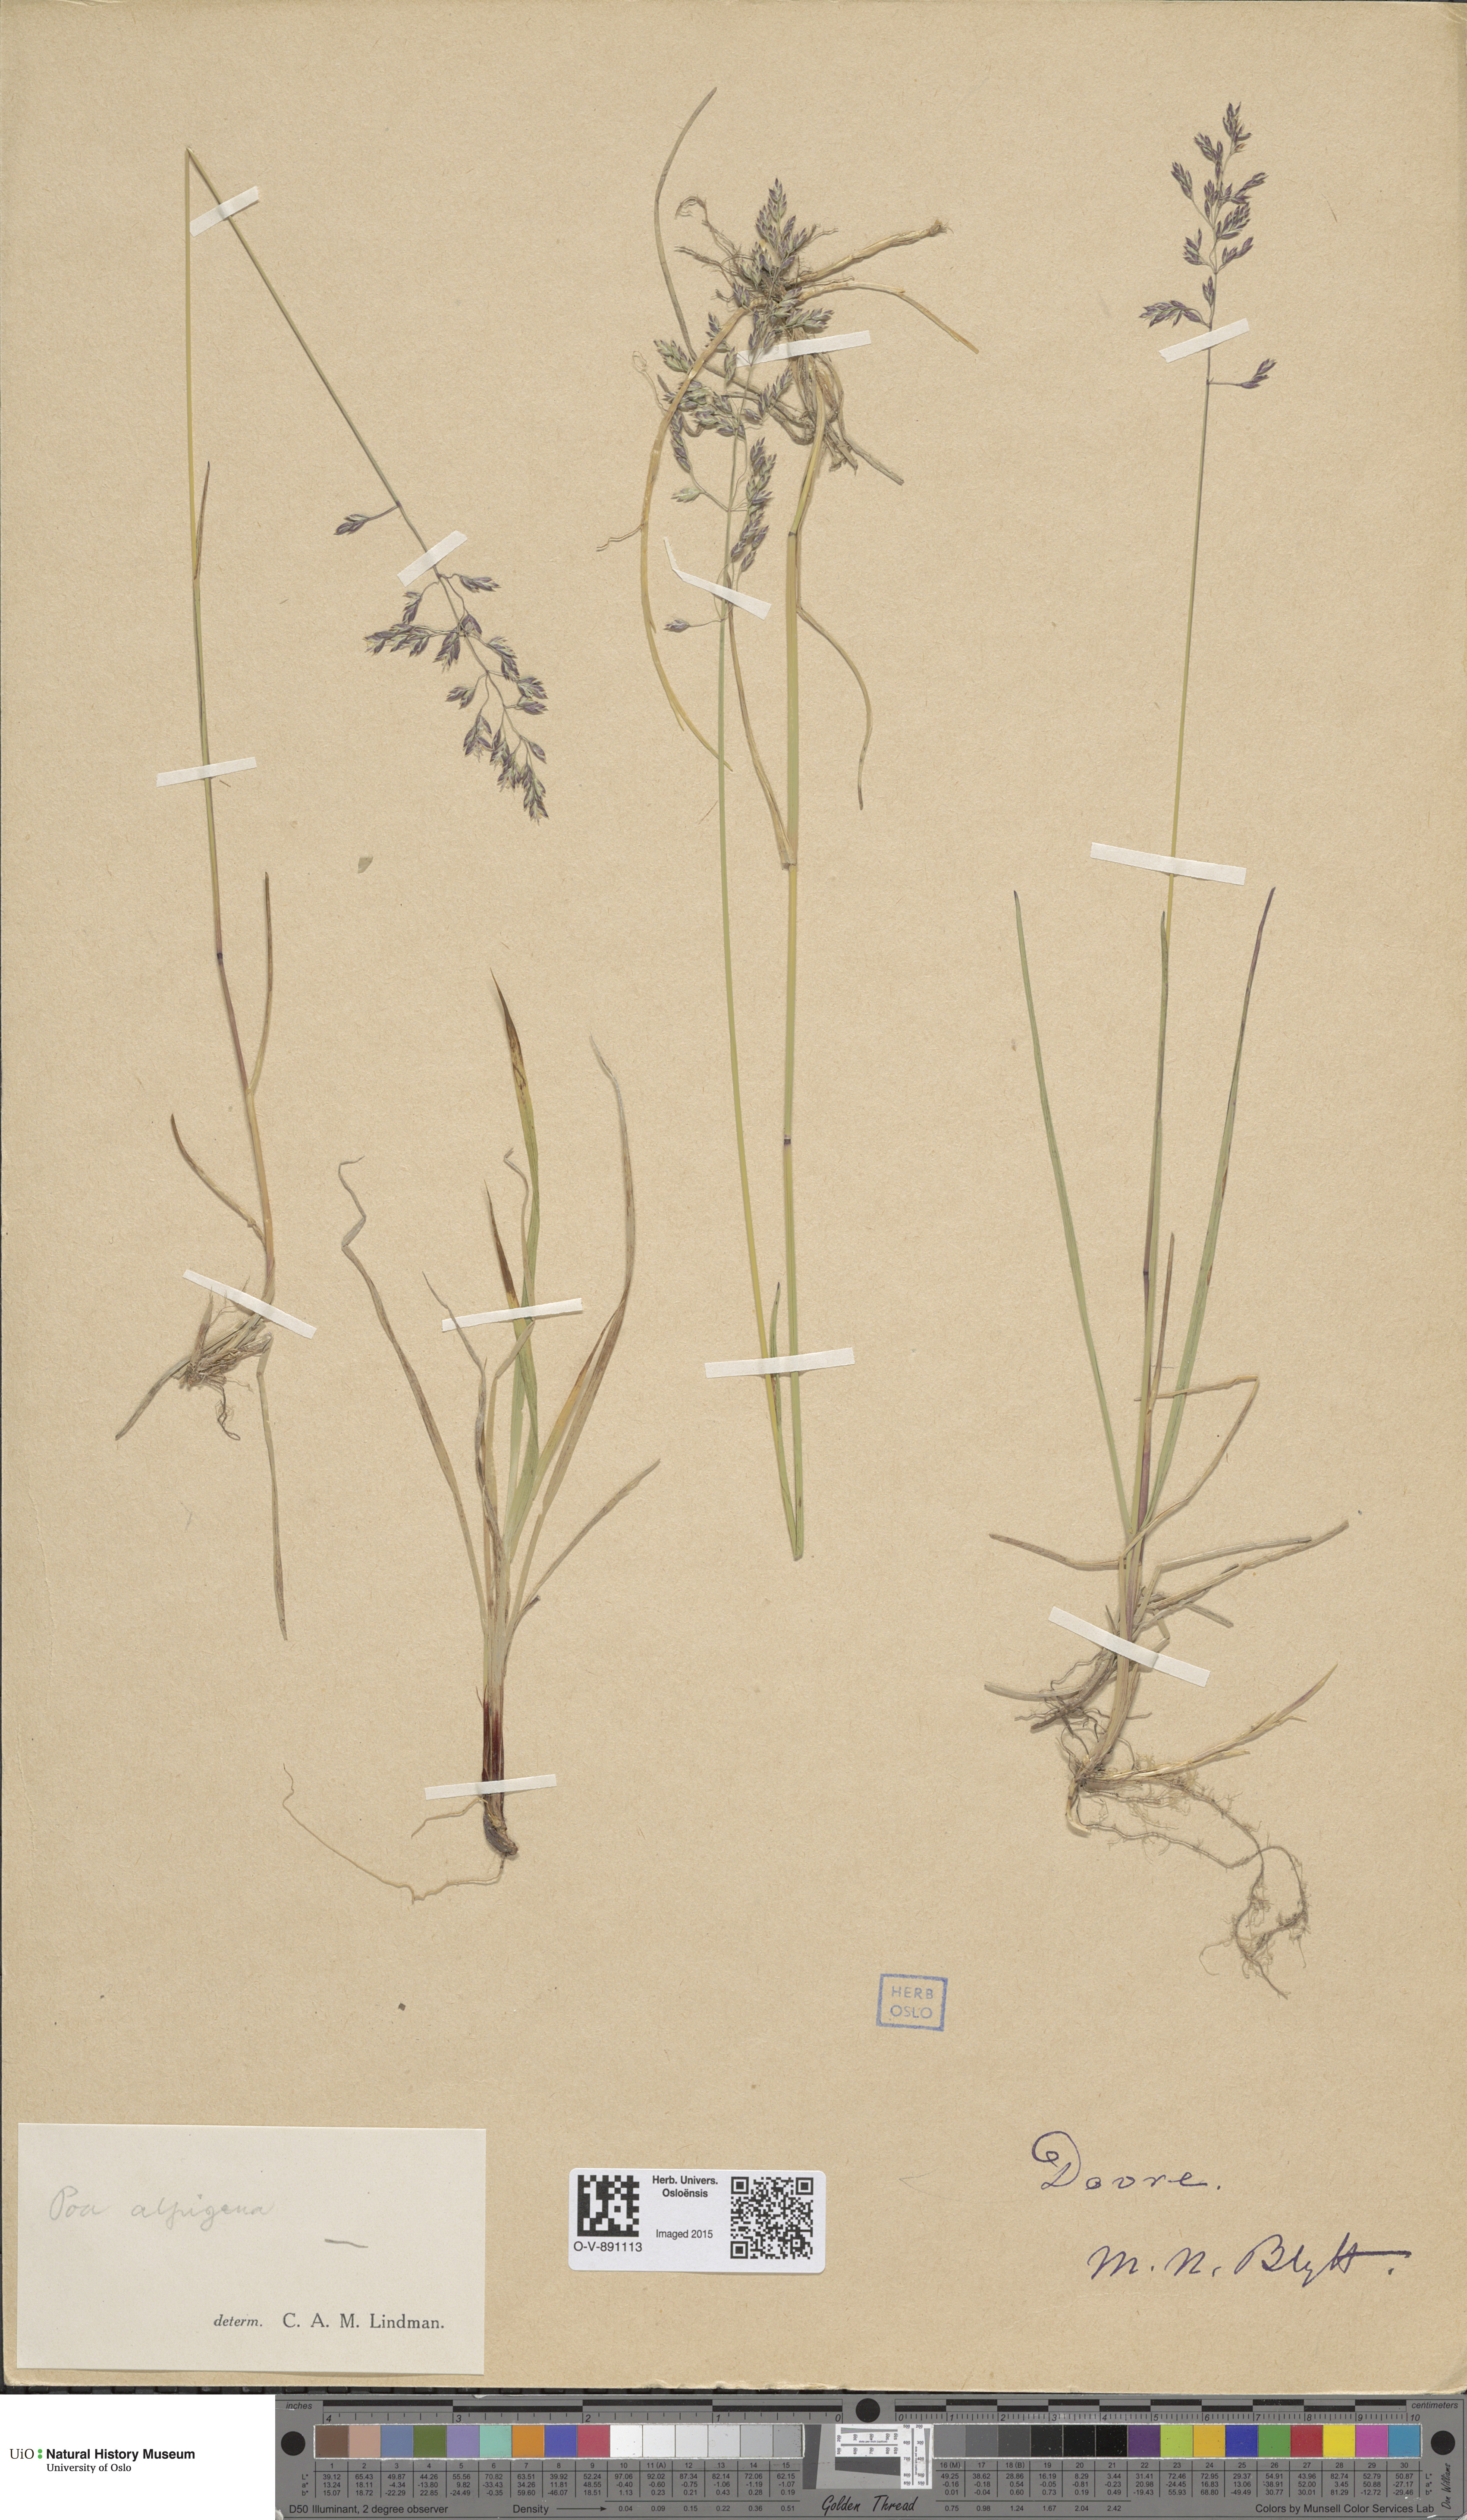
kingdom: Plantae
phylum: Tracheophyta
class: Liliopsida
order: Poales
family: Poaceae
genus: Poa
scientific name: Poa alpigena
